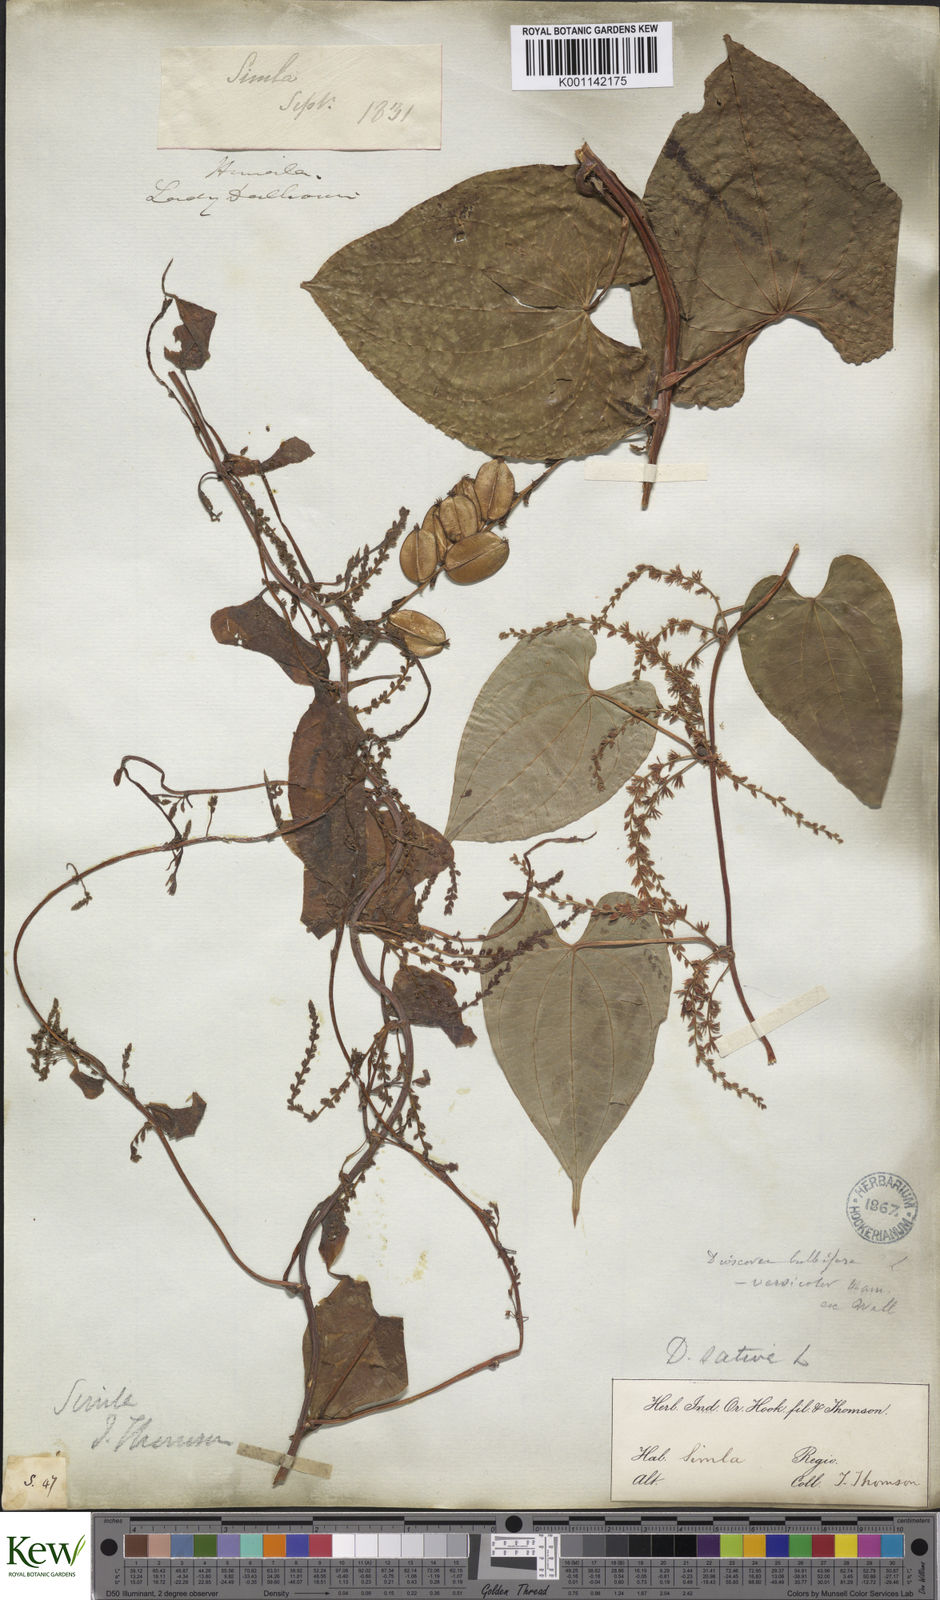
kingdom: Plantae
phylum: Tracheophyta
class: Liliopsida
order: Dioscoreales
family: Dioscoreaceae
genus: Dioscorea
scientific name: Dioscorea bulbifera
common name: Air yam
